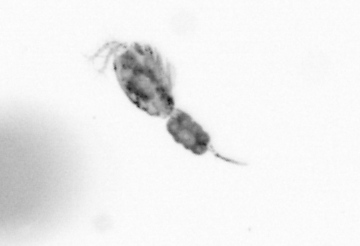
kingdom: Animalia
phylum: Arthropoda
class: Copepoda
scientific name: Copepoda
